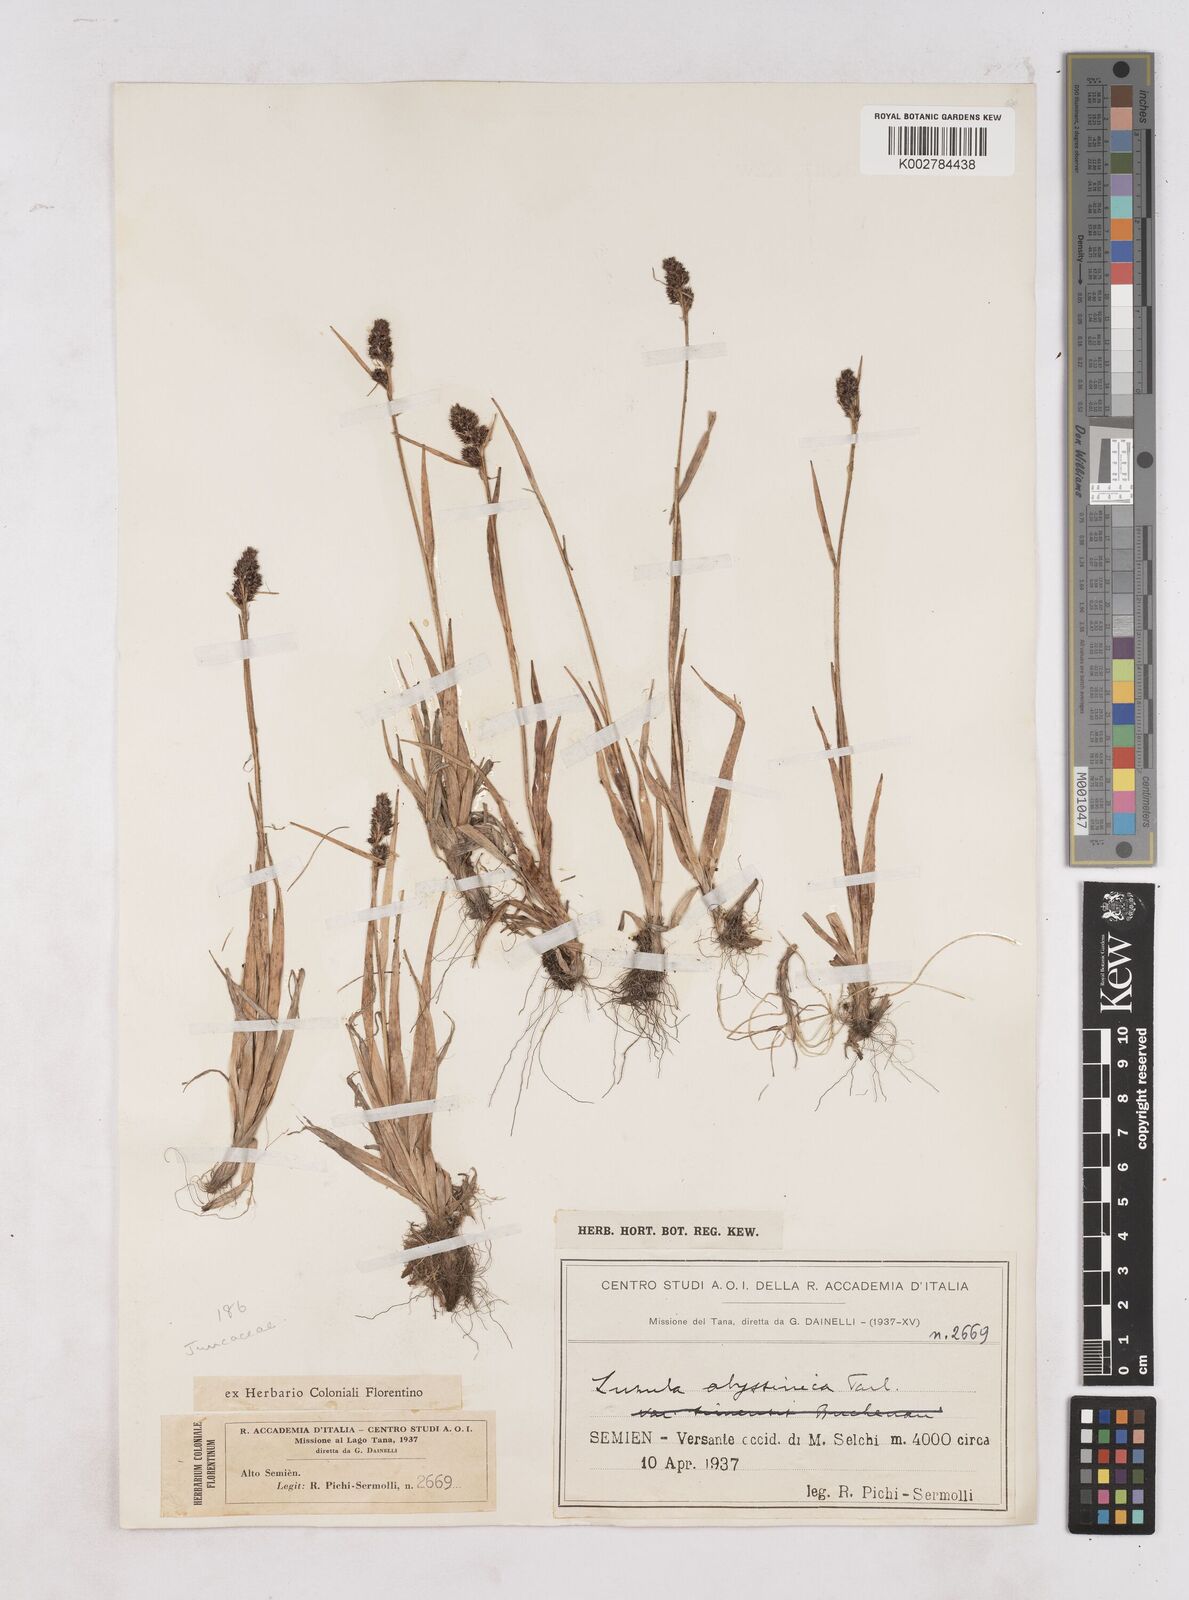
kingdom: Plantae
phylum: Tracheophyta
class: Liliopsida
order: Poales
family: Juncaceae
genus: Luzula
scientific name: Luzula abyssinica
